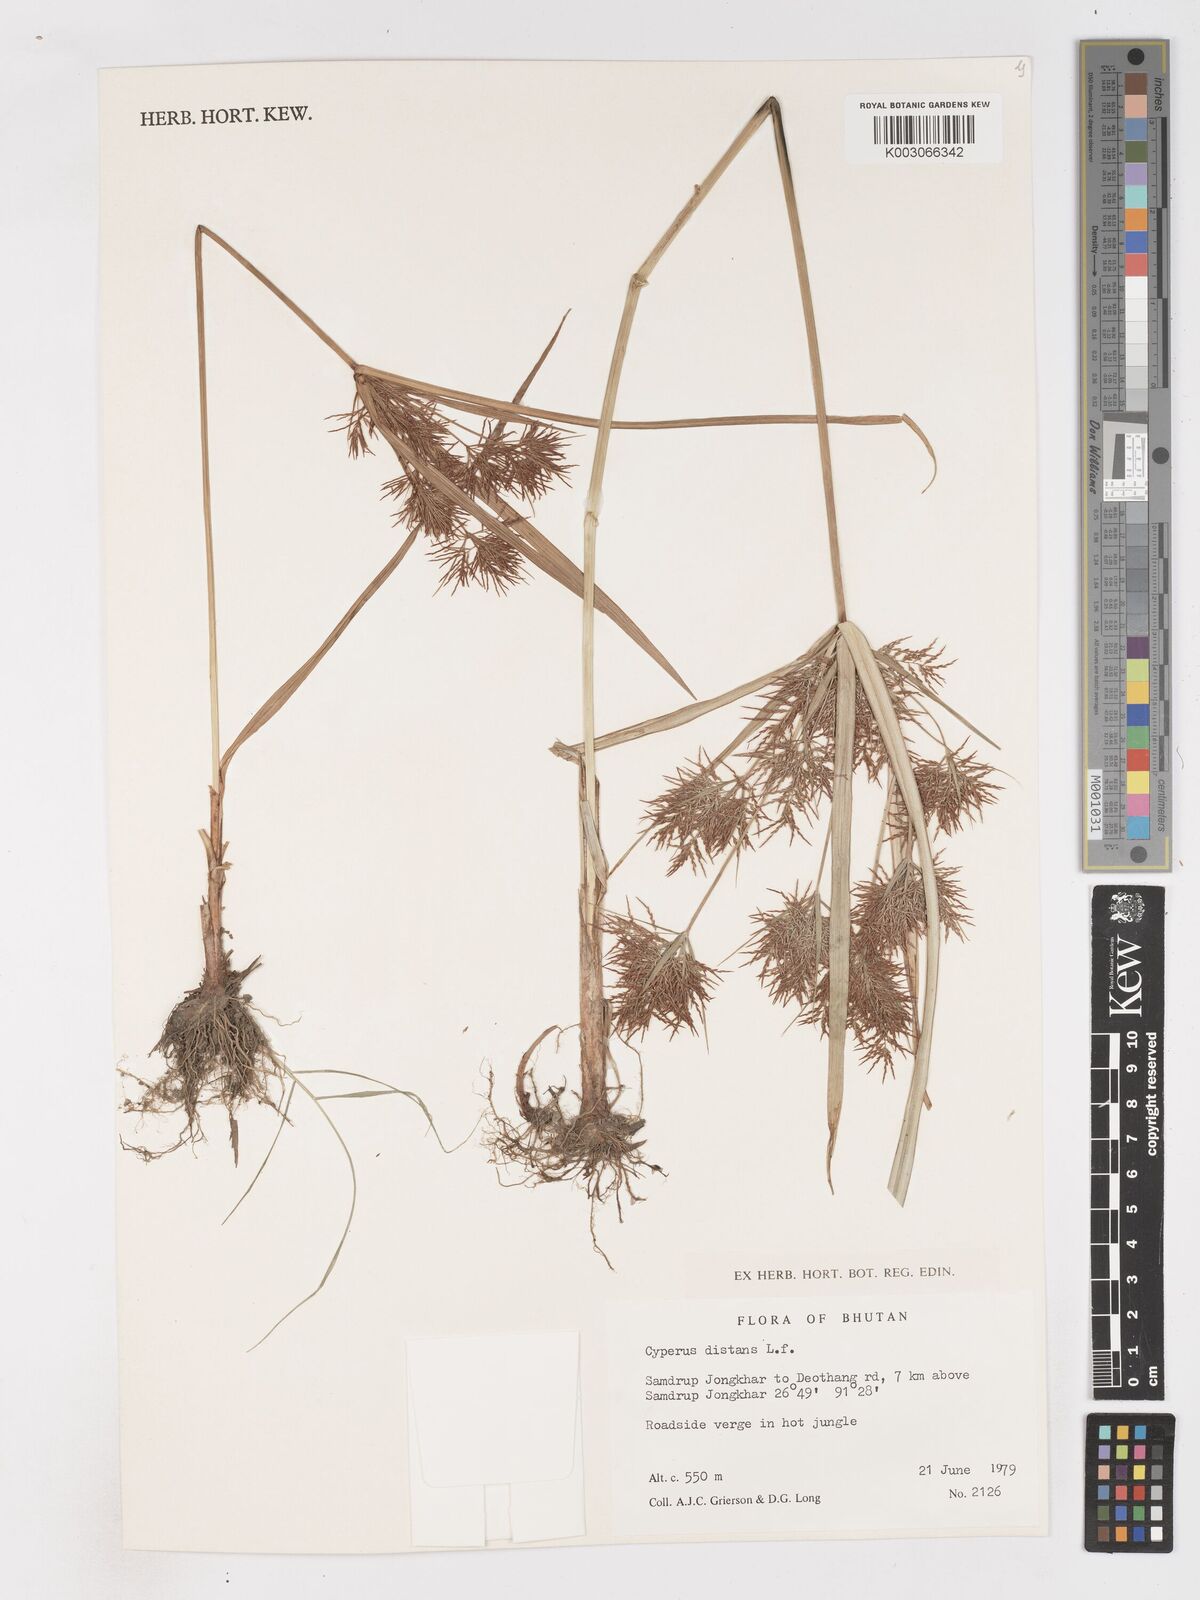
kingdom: Plantae
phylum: Tracheophyta
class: Liliopsida
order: Poales
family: Cyperaceae
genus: Cyperus
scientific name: Cyperus distans
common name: Slender cyperus
